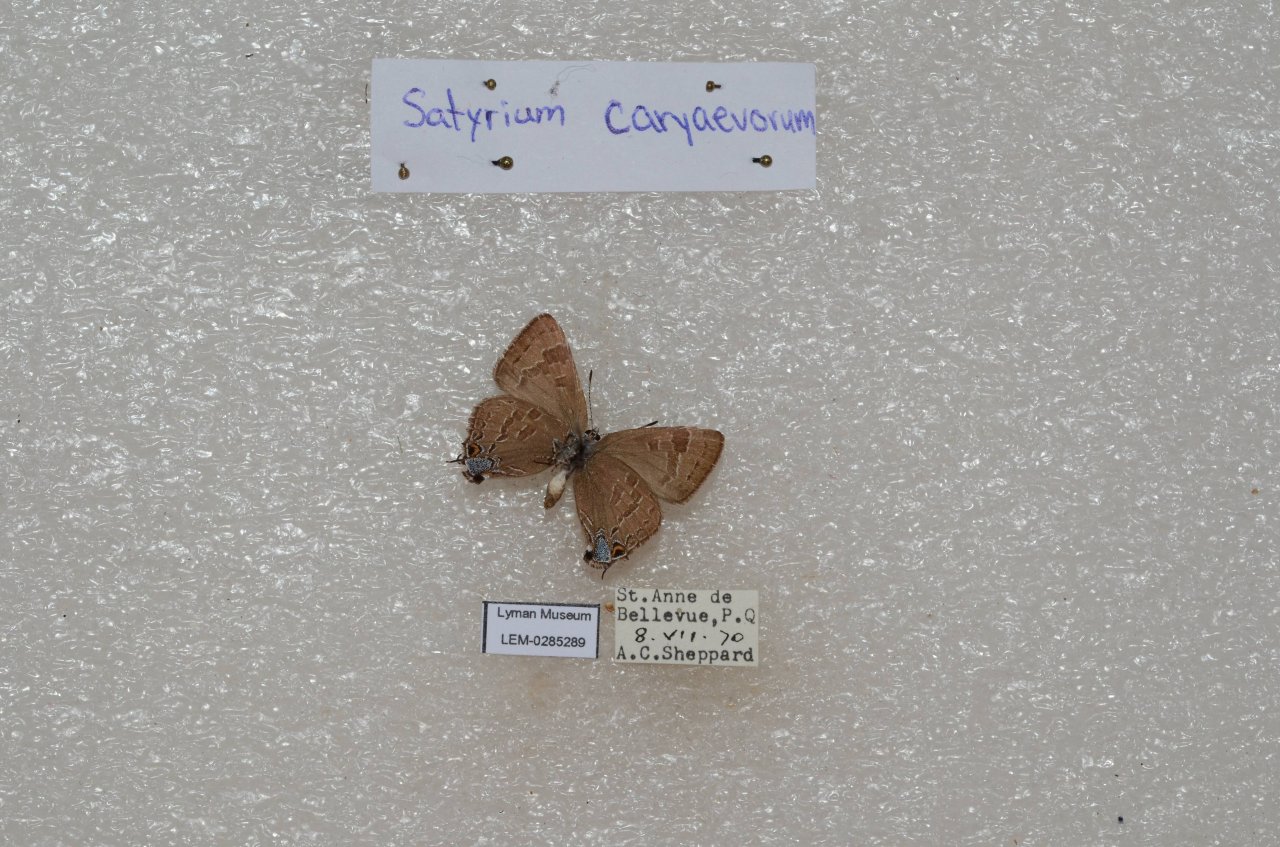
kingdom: Animalia
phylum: Arthropoda
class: Insecta
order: Lepidoptera
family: Lycaenidae
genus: Strymon
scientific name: Strymon caryaevorus
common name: Hickory Hairstreak
